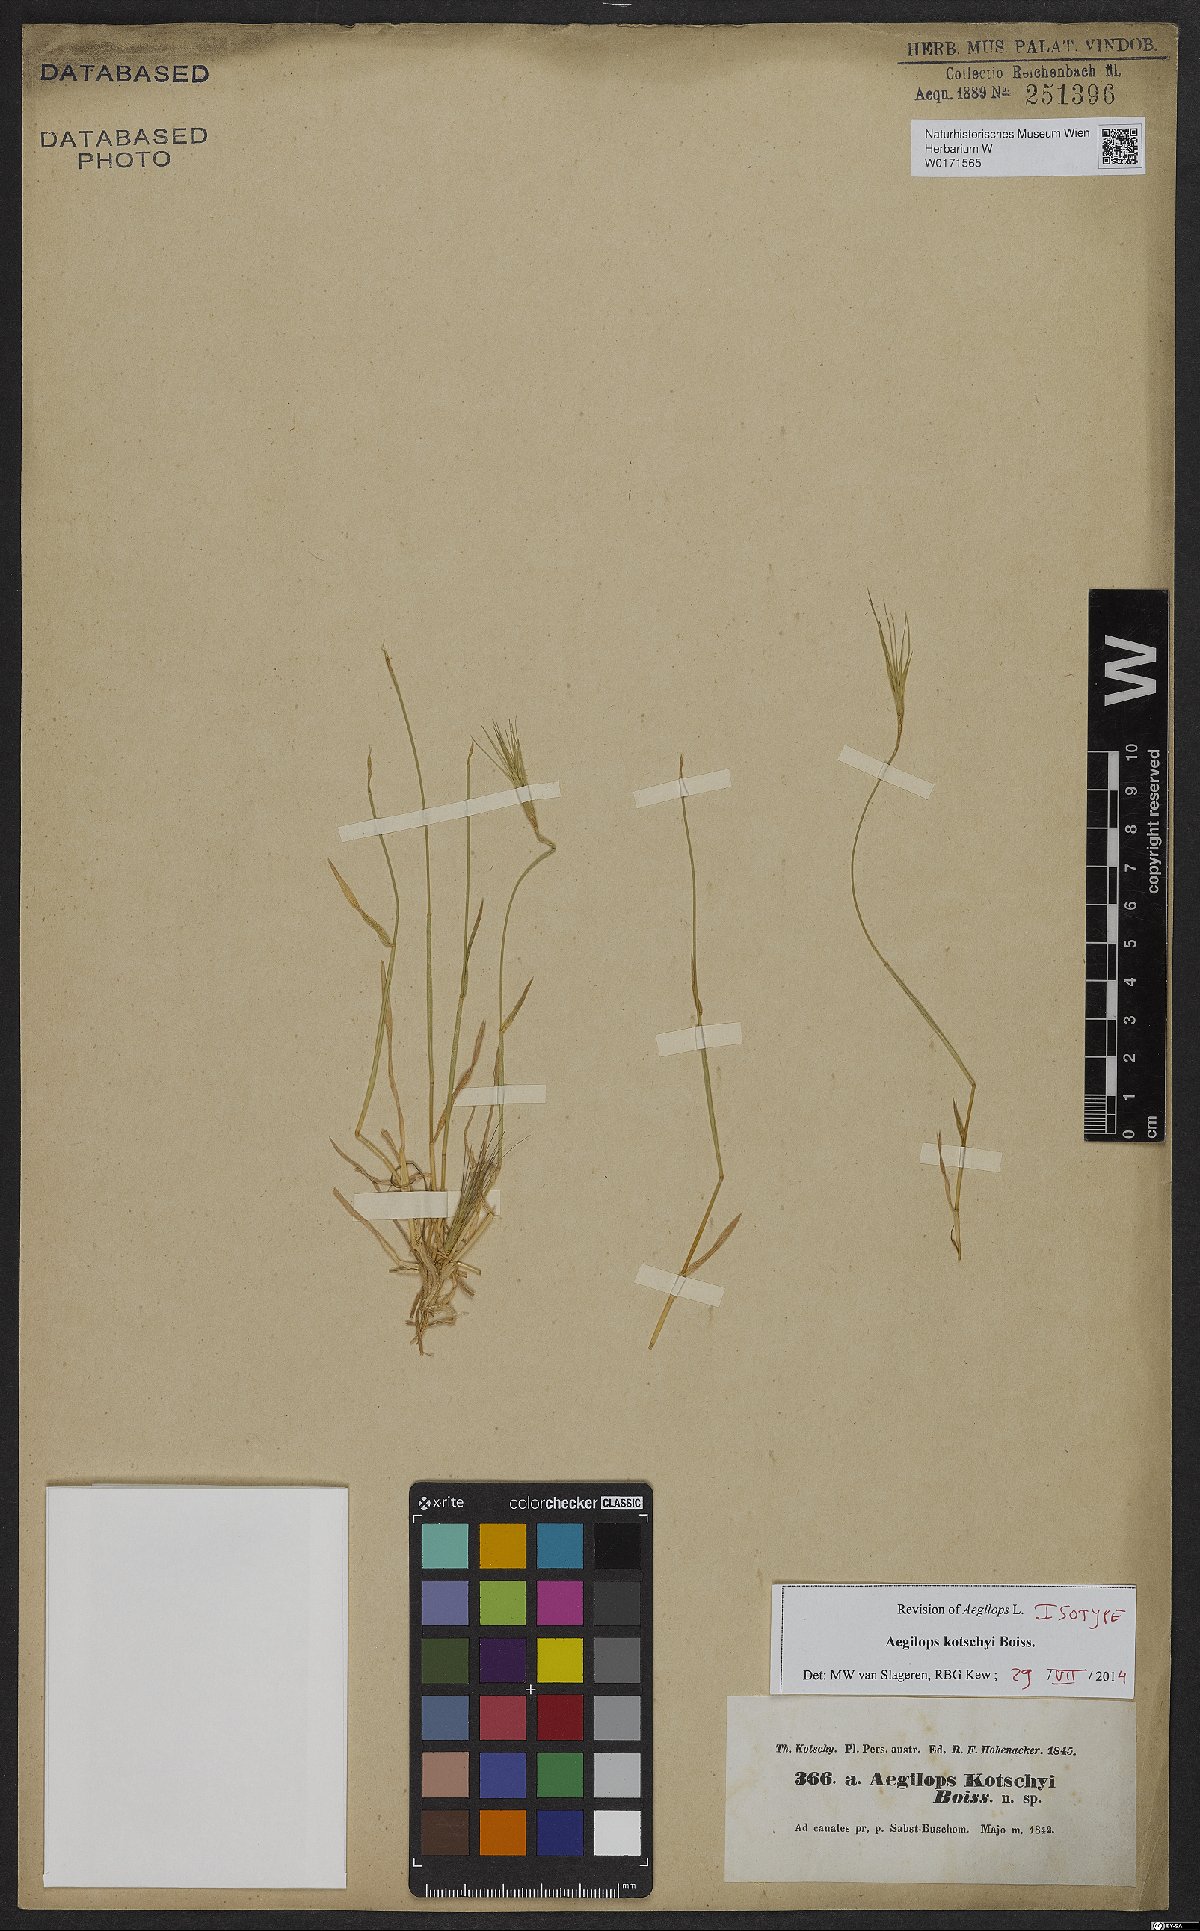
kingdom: Plantae
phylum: Tracheophyta
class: Liliopsida
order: Poales
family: Poaceae
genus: Aegilops
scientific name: Aegilops kotschyi
